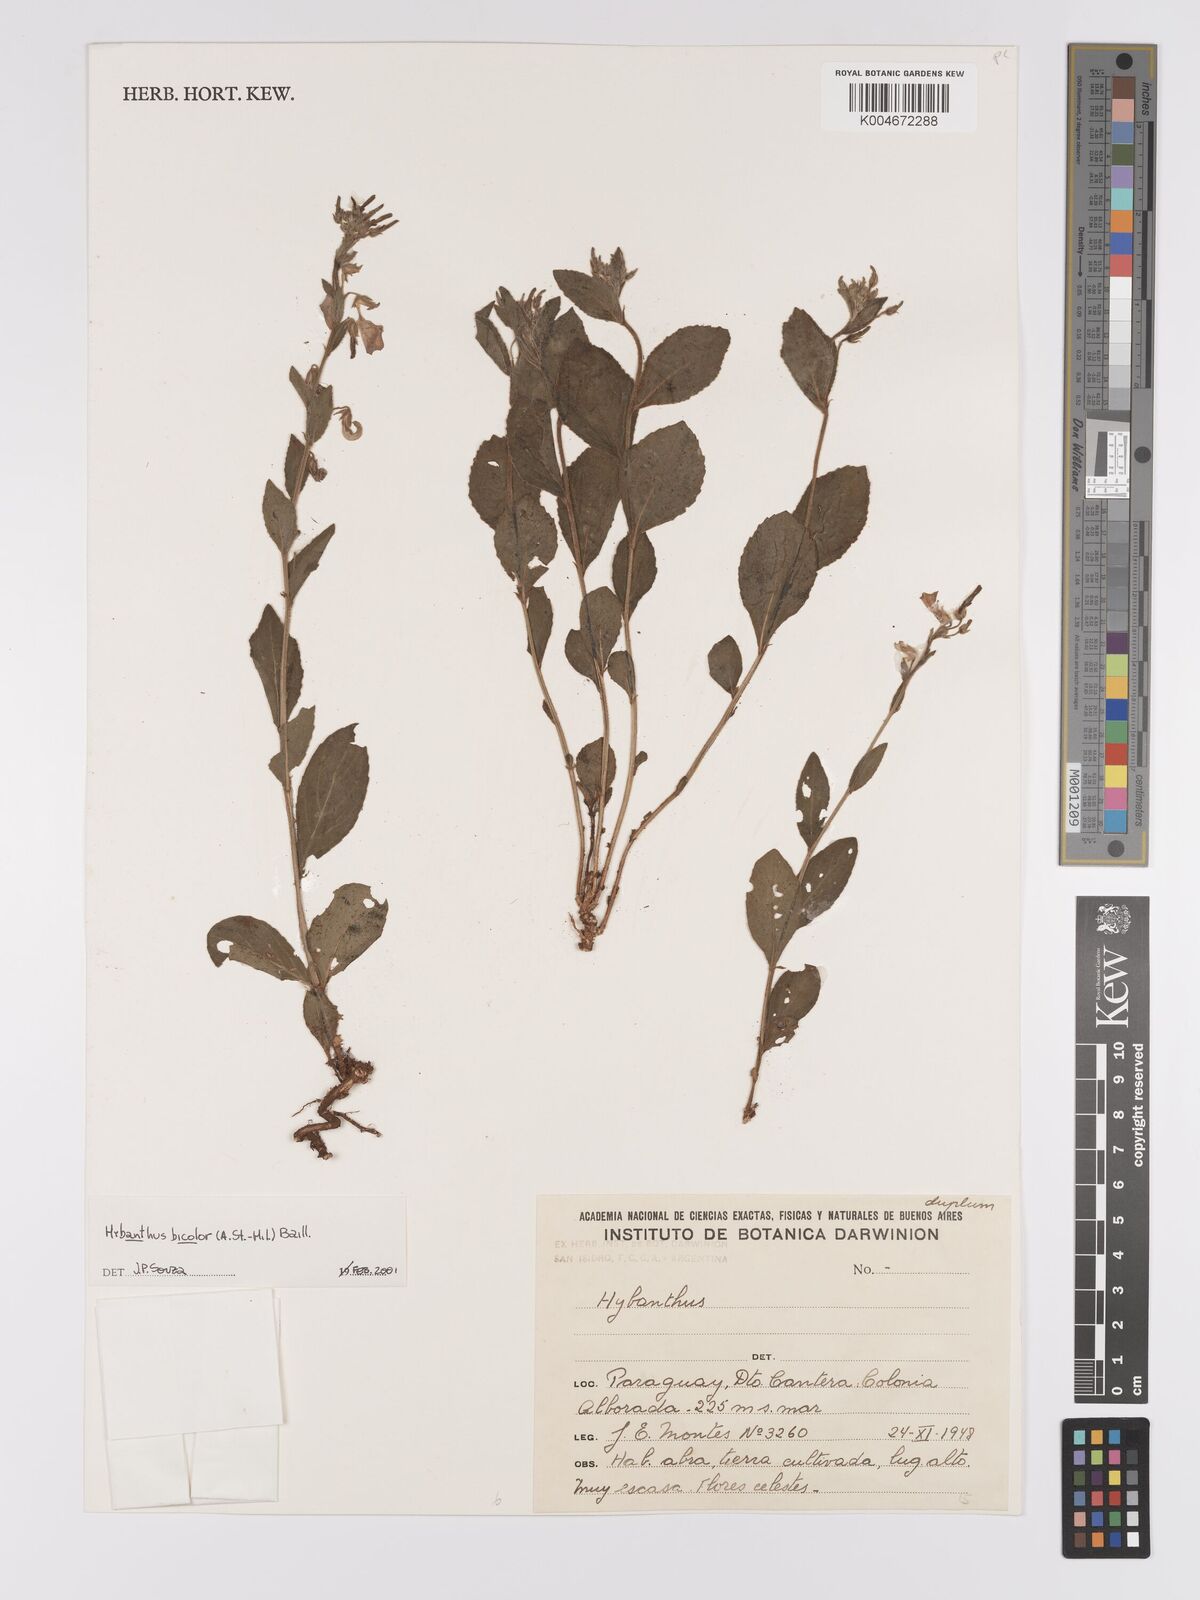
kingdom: Plantae
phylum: Tracheophyta
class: Magnoliopsida
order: Malpighiales
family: Violaceae
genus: Pombalia
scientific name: Pombalia bicolor
